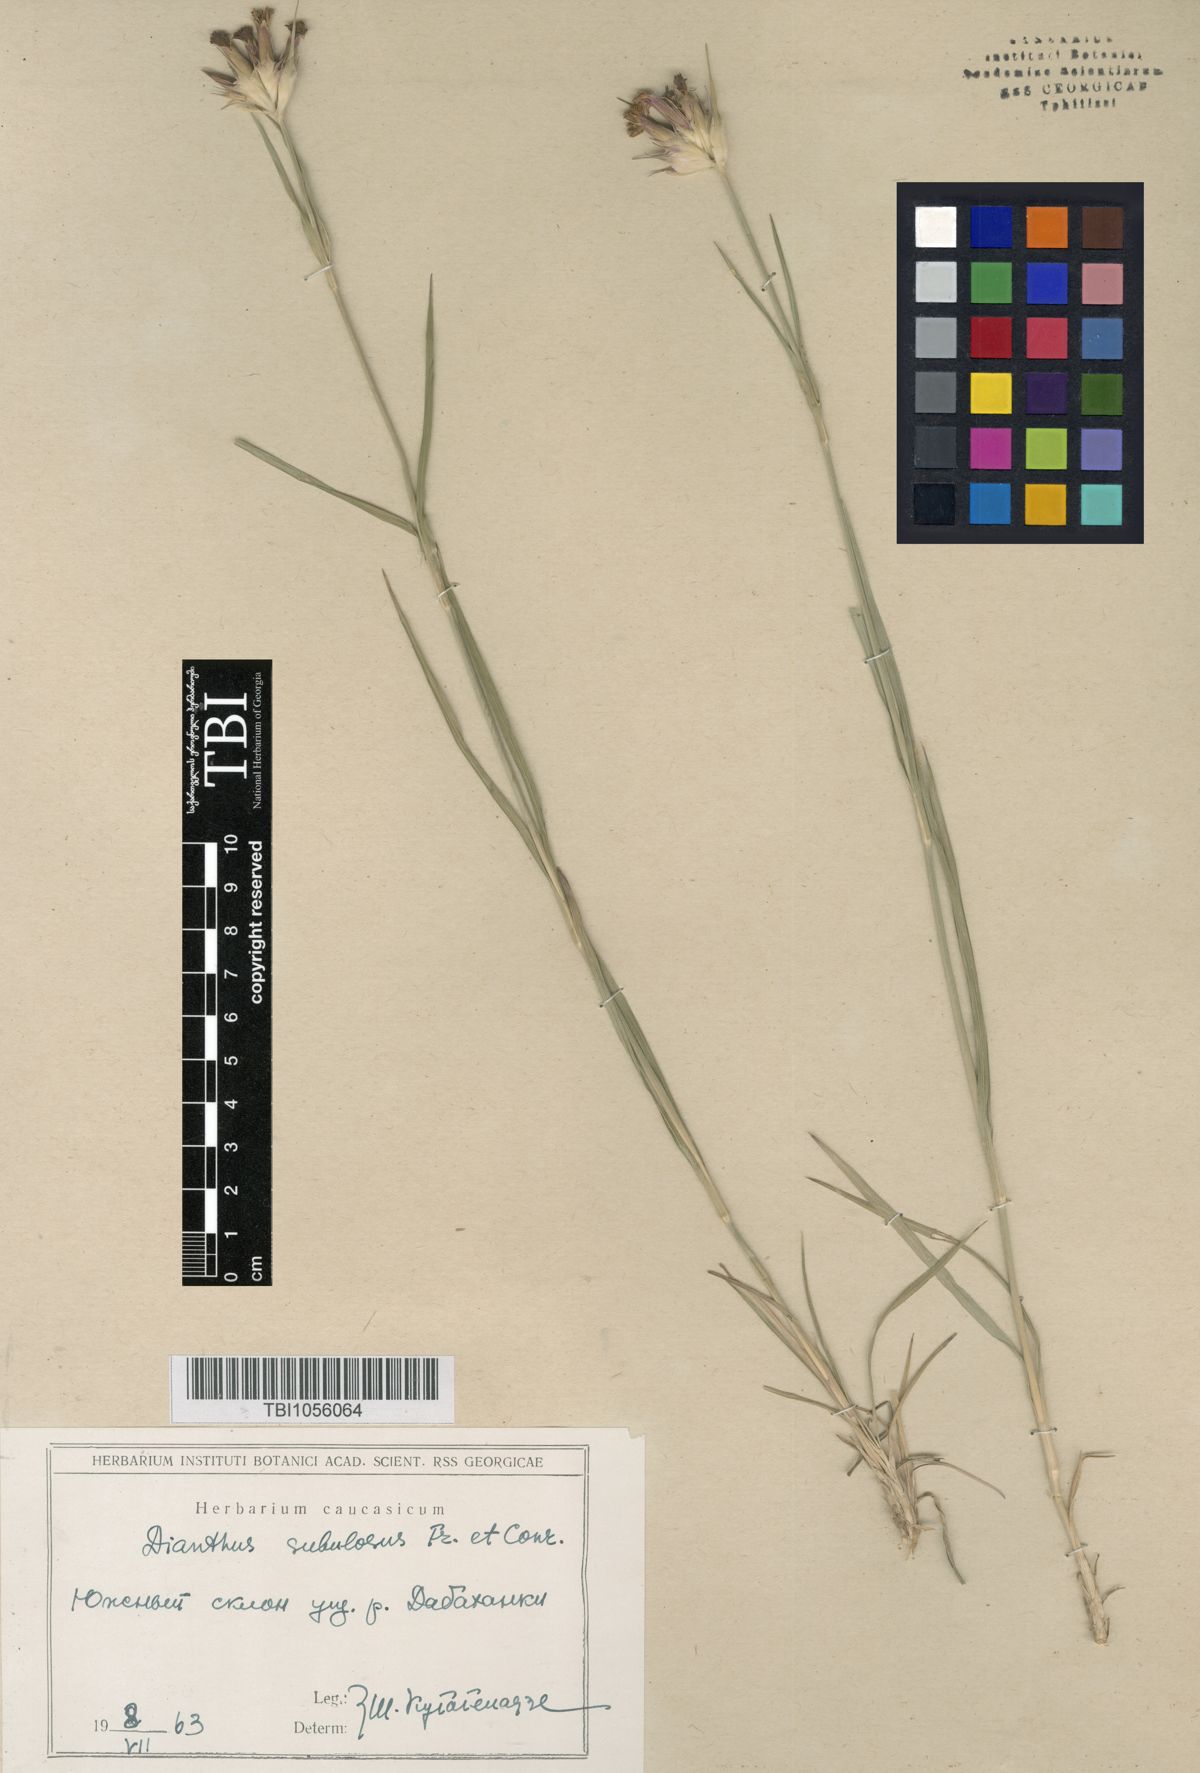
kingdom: Plantae
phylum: Tracheophyta
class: Magnoliopsida
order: Caryophyllales
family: Caryophyllaceae
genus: Dianthus
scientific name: Dianthus subulosus
